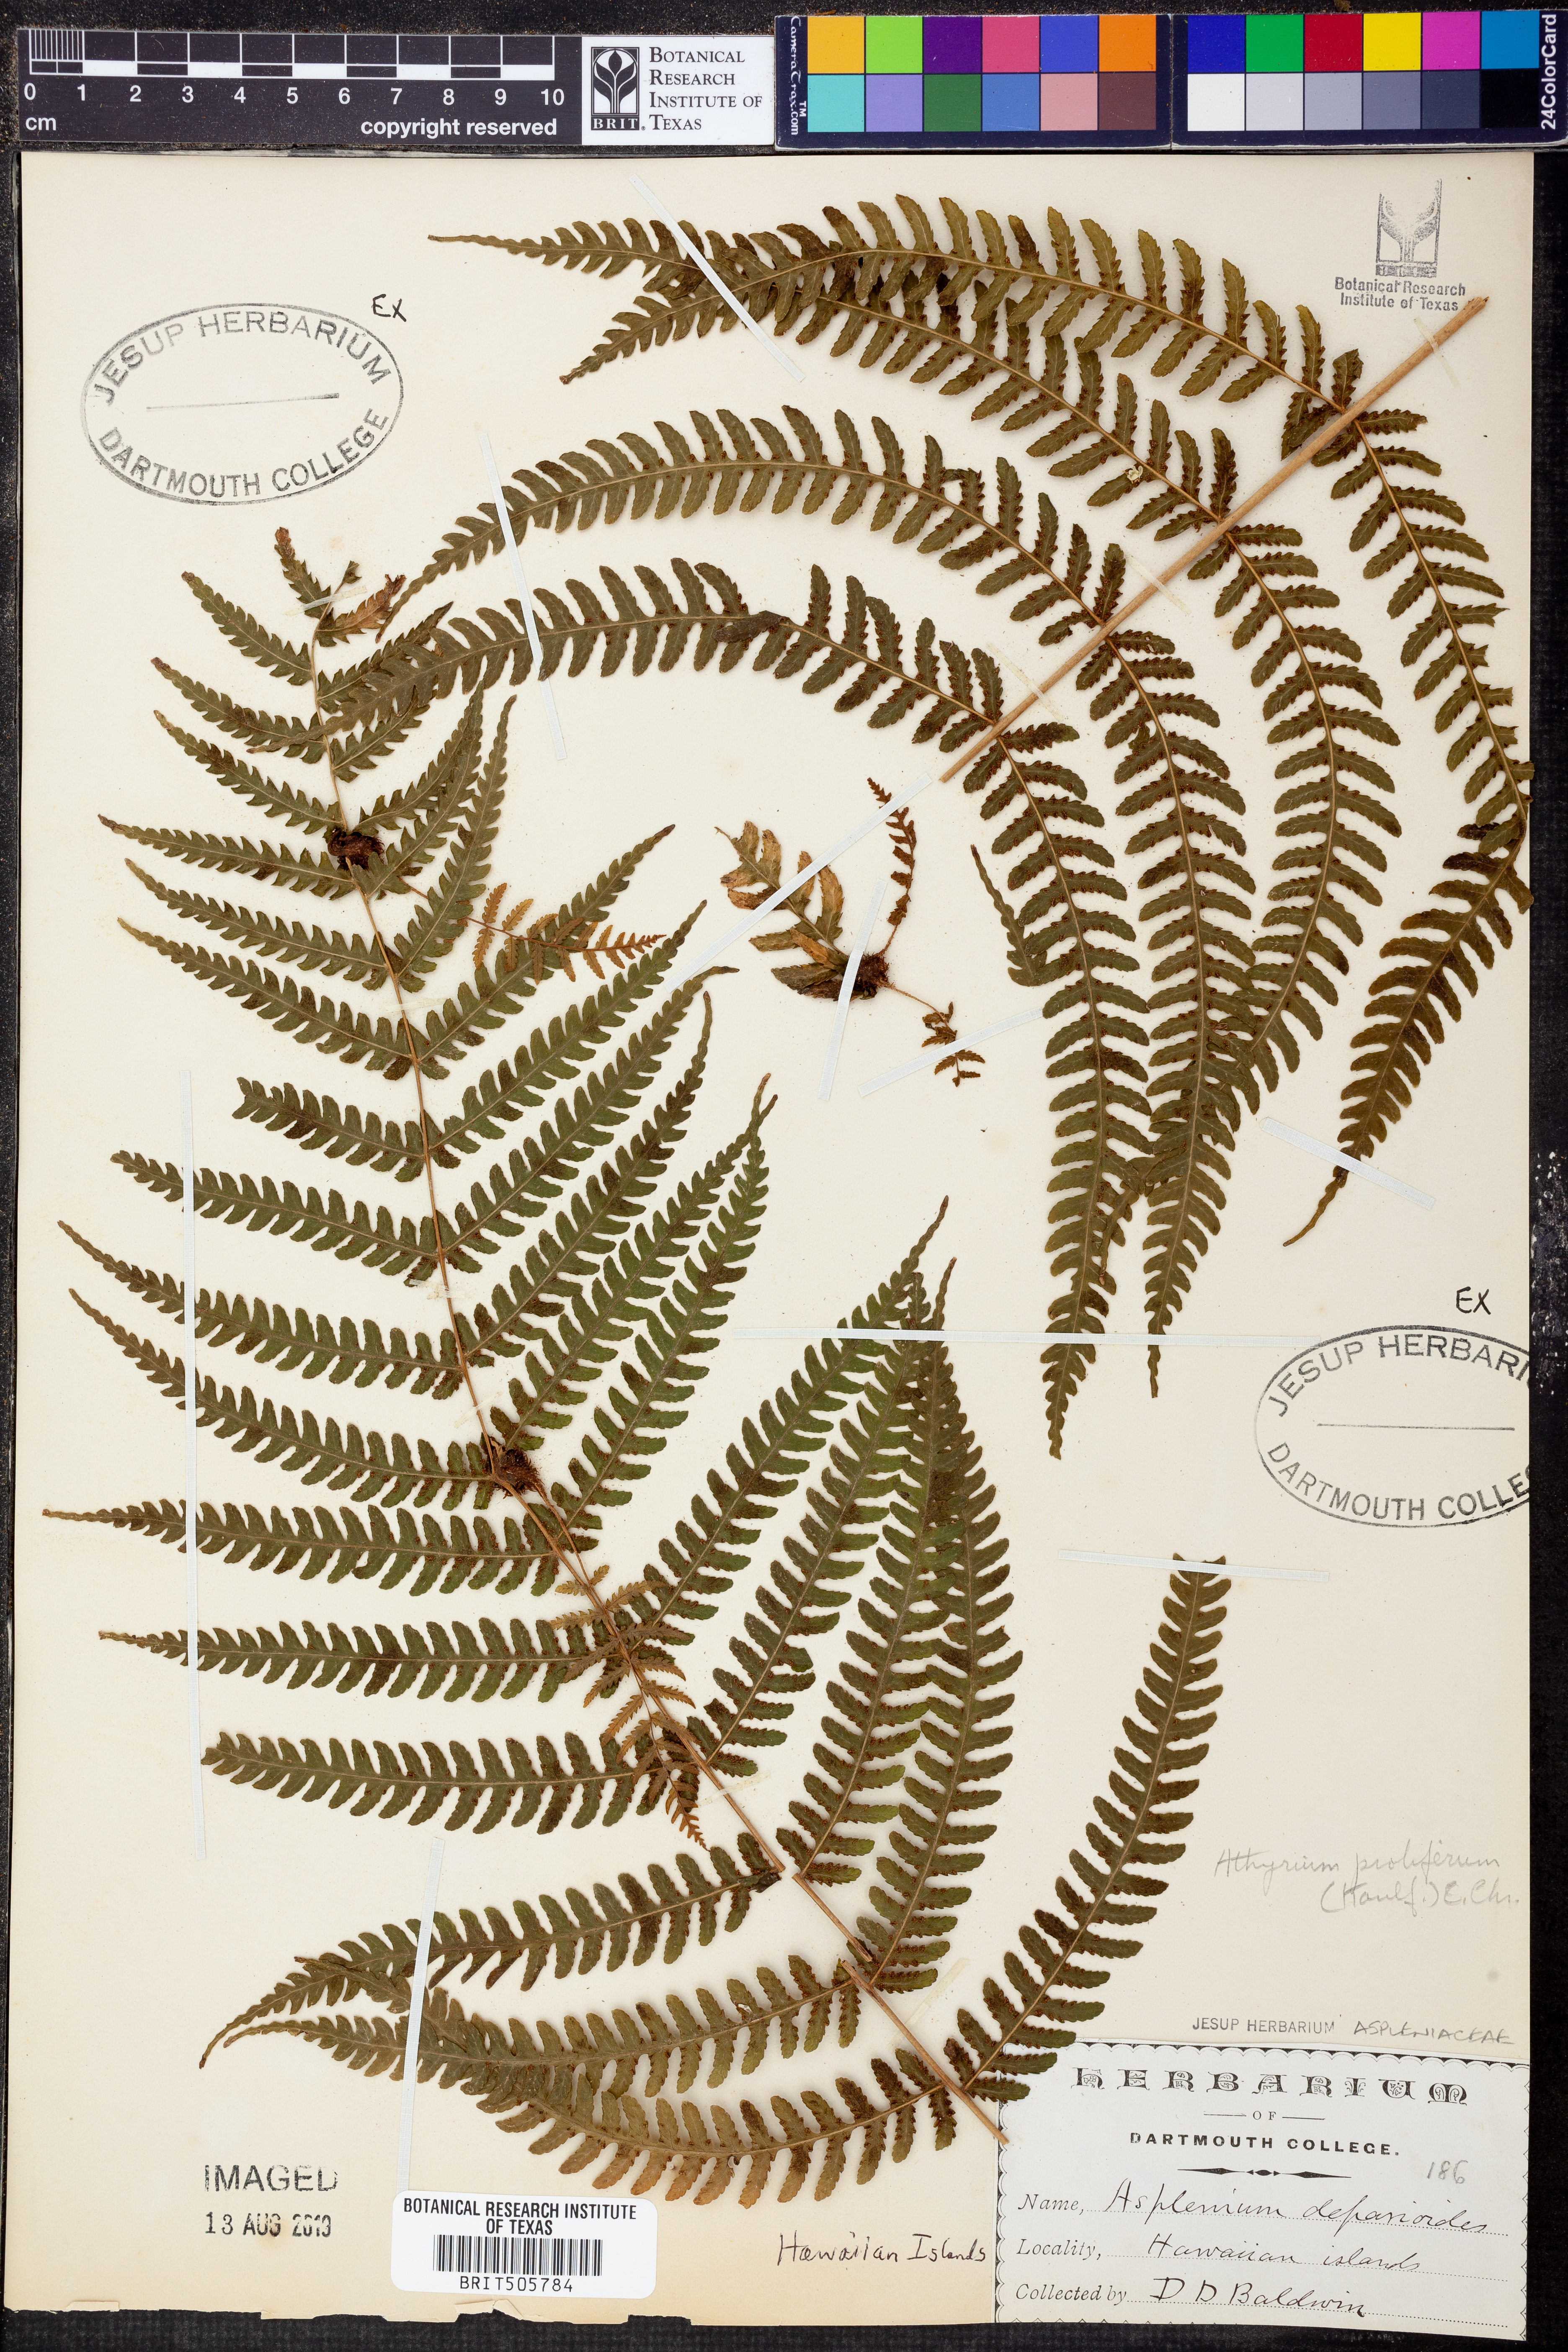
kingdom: Plantae
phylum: Tracheophyta
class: Polypodiopsida
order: Polypodiales
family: Athyriaceae
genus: Deparia
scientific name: Deparia prolifera
